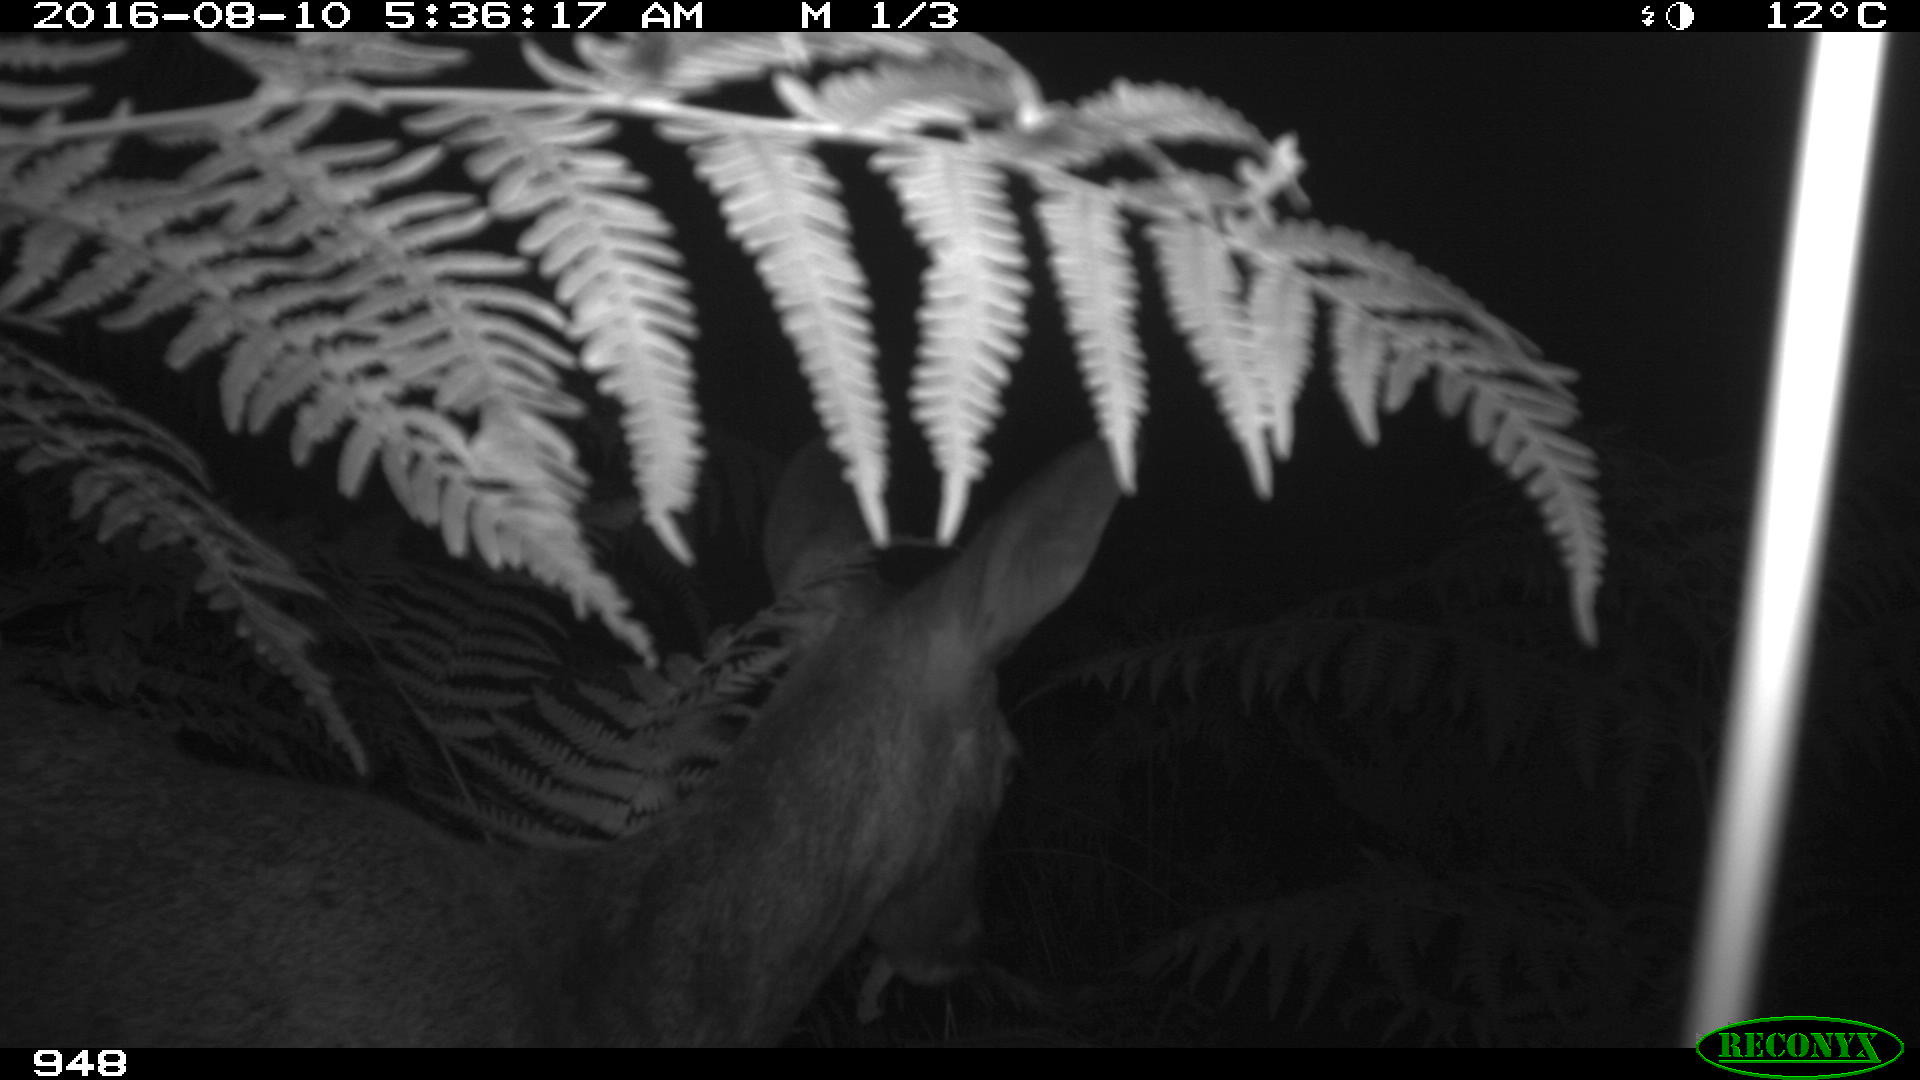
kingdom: Animalia
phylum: Chordata
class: Mammalia
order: Artiodactyla
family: Cervidae
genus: Capreolus
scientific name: Capreolus capreolus
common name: Western roe deer
